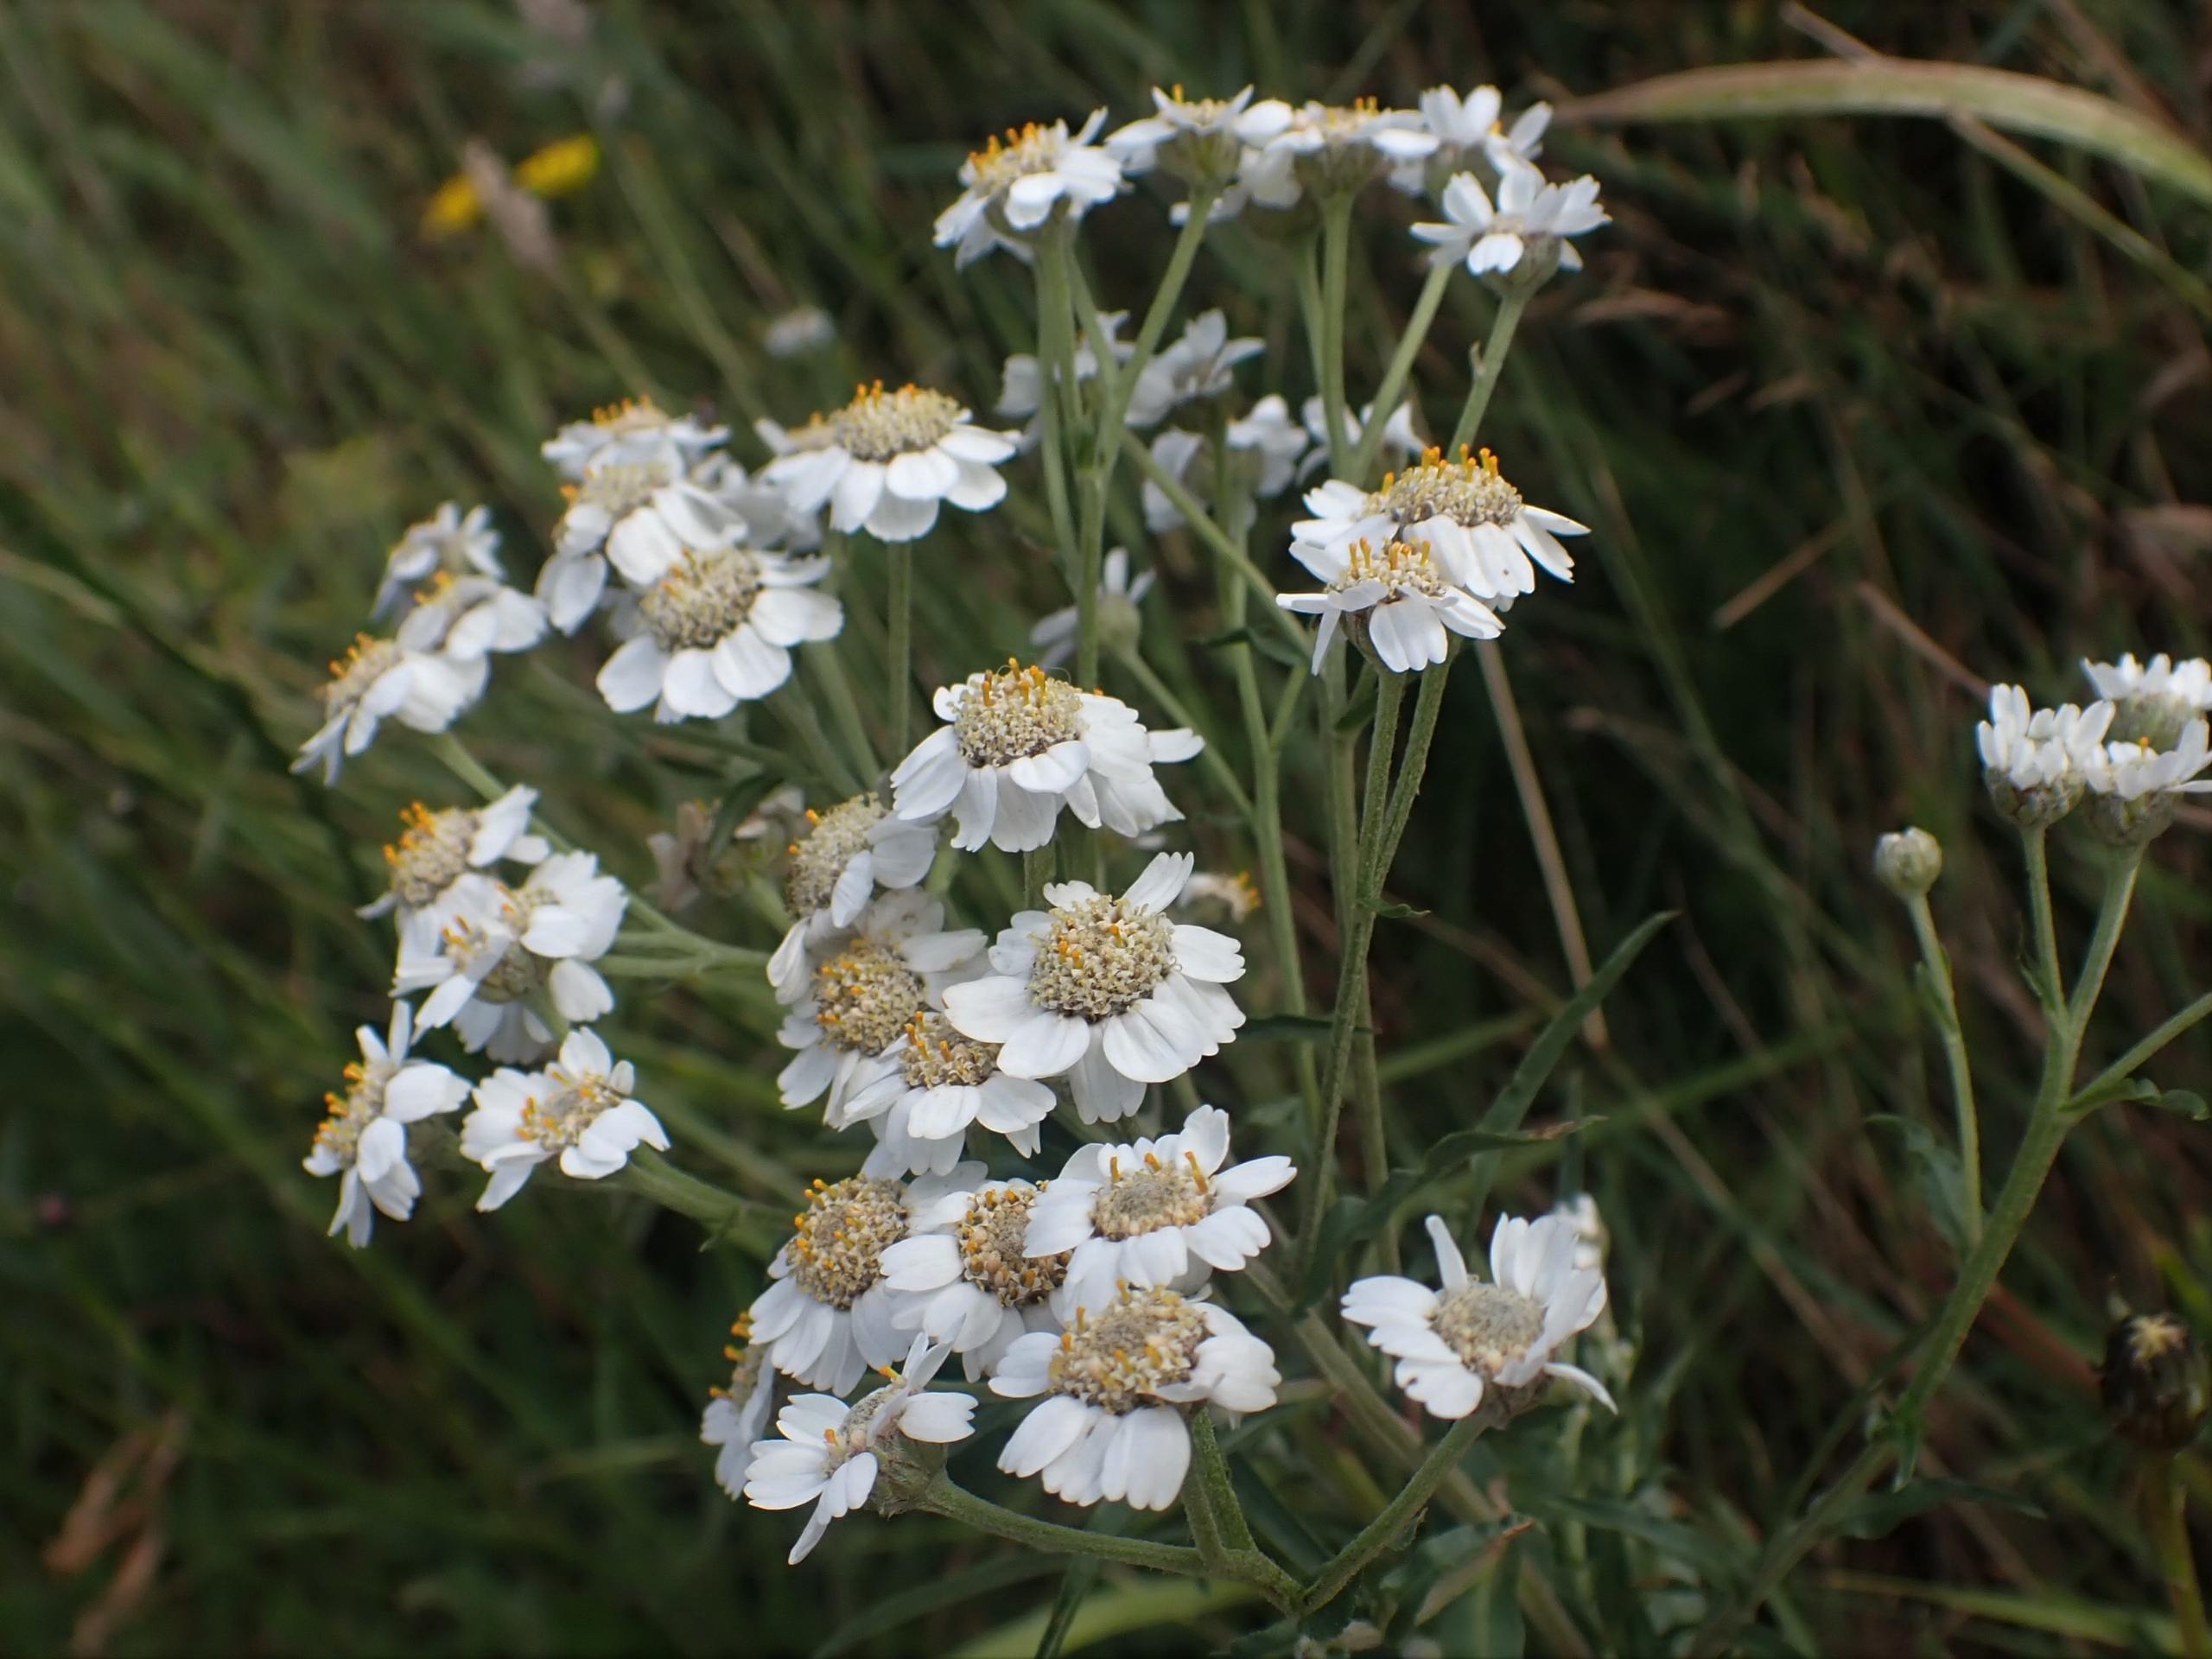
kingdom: Plantae
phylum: Tracheophyta
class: Magnoliopsida
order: Asterales
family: Asteraceae
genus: Achillea
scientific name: Achillea ptarmica
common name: Nyse-røllike
